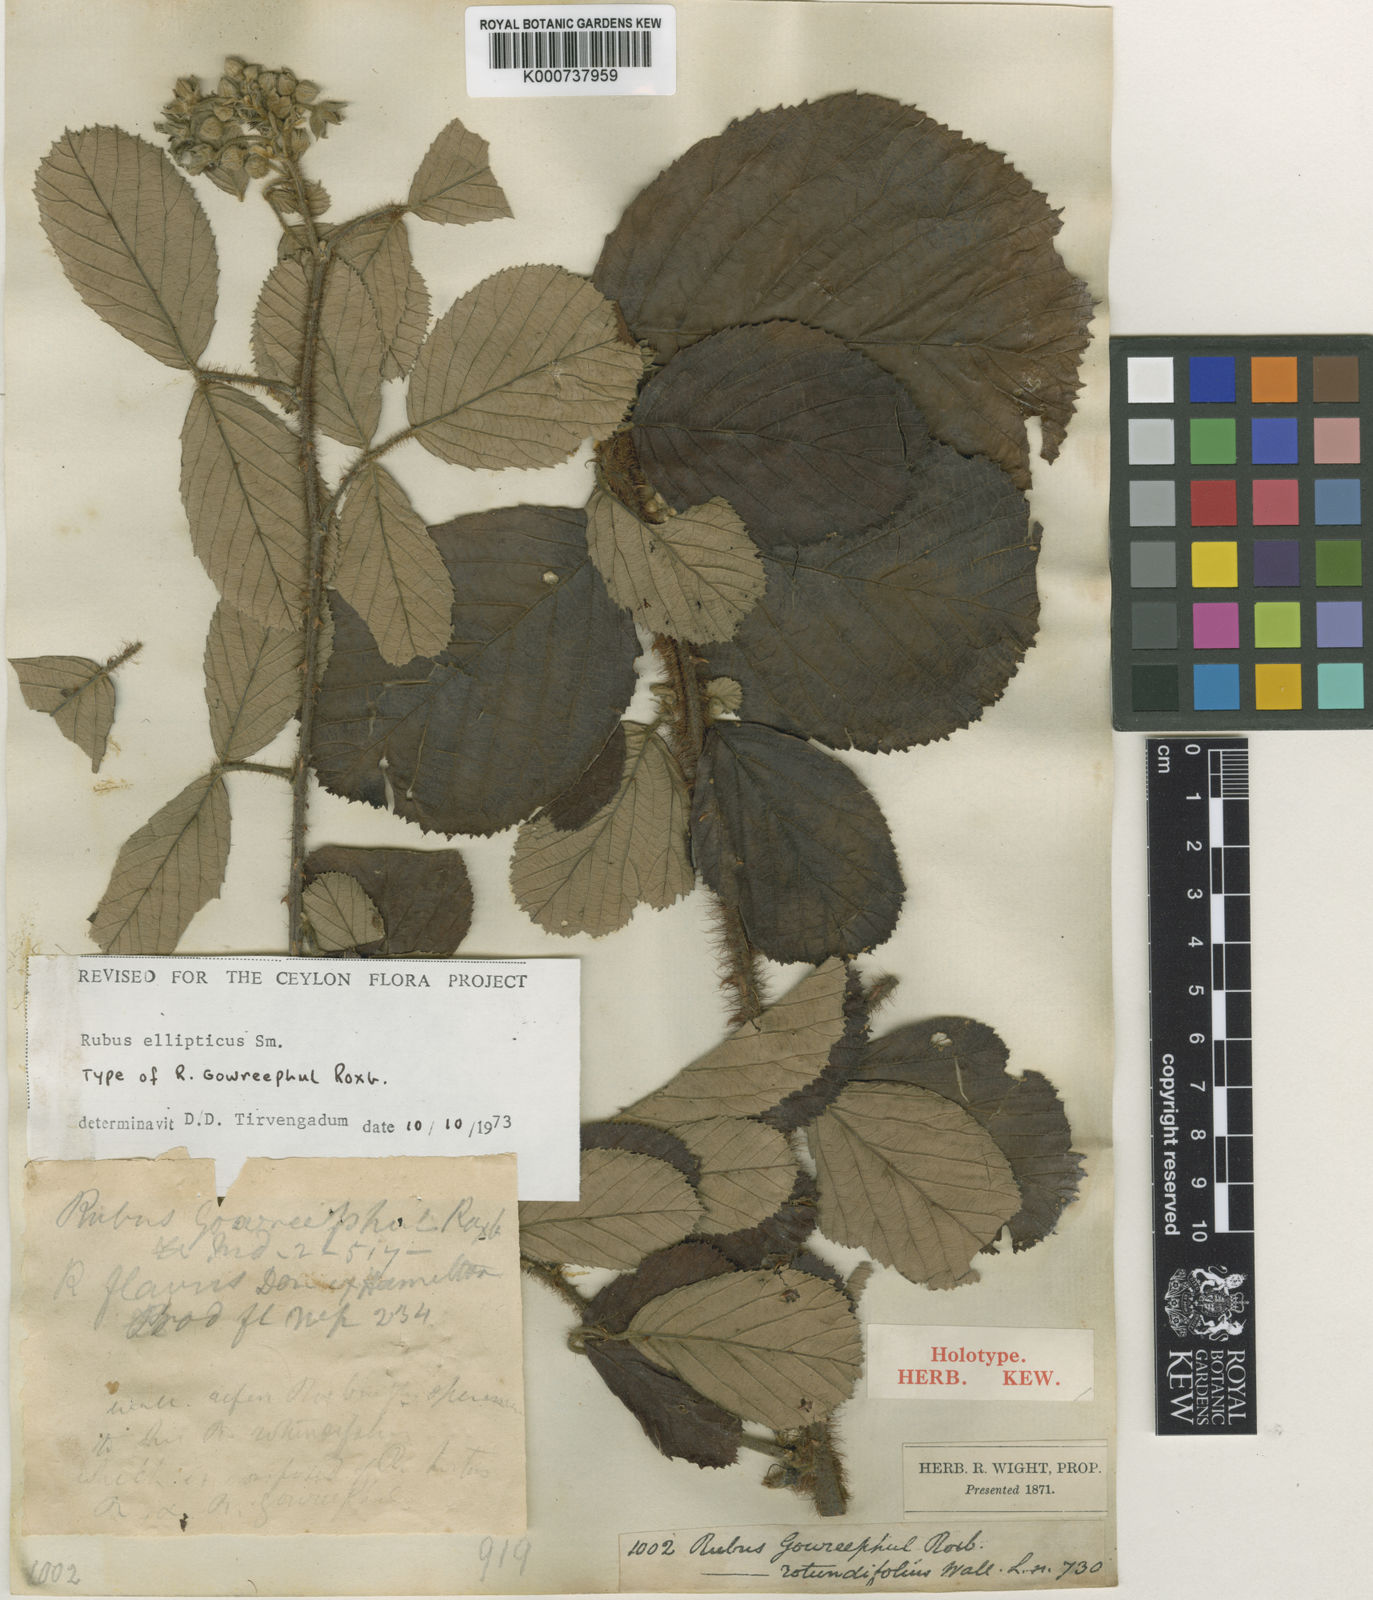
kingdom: Plantae
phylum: Tracheophyta
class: Magnoliopsida
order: Rosales
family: Rosaceae
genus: Rubus
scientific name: Rubus ellipticus
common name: Cheeseberry
